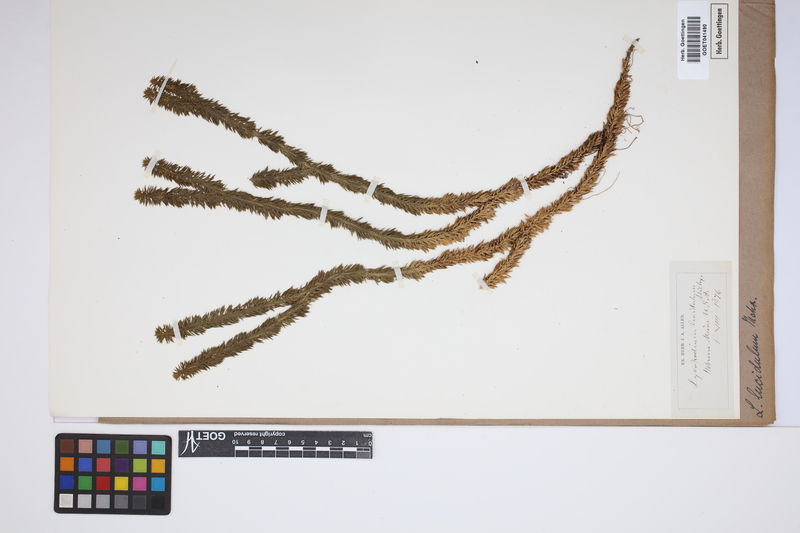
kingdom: Plantae
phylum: Tracheophyta
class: Lycopodiopsida
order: Lycopodiales
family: Lycopodiaceae
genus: Huperzia
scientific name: Huperzia lucidula
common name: Shining clubmoss
